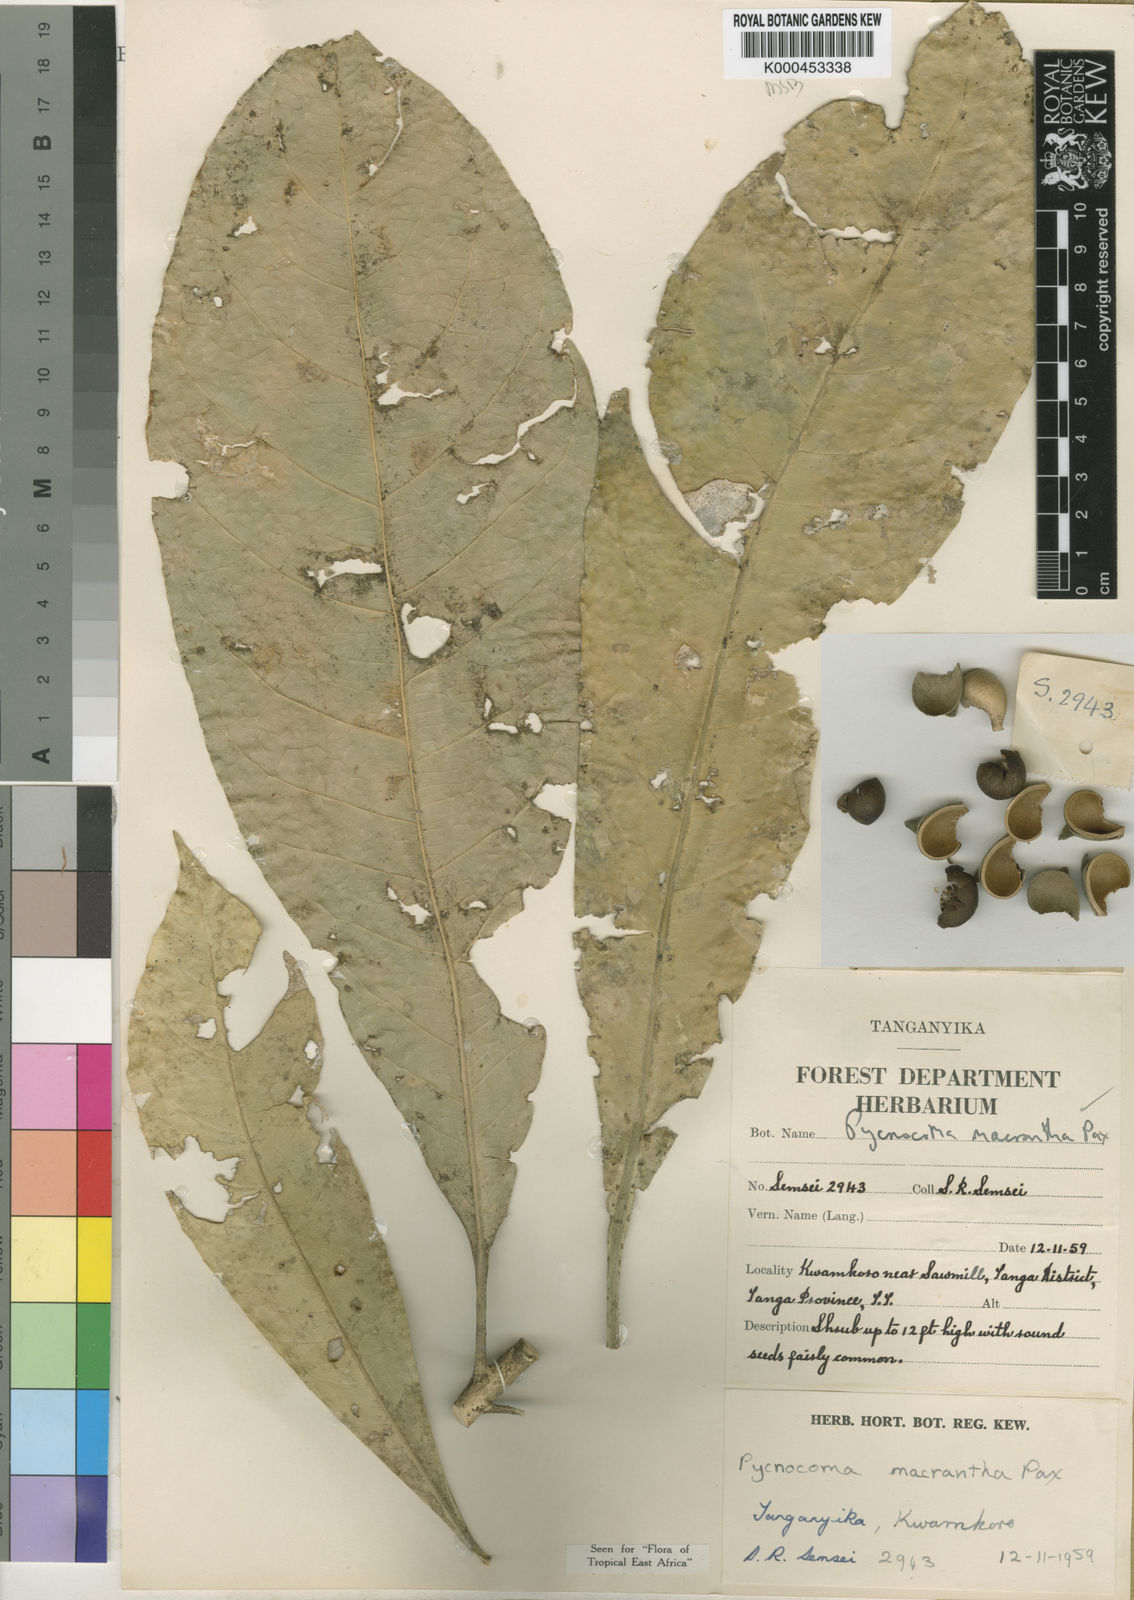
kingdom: Plantae
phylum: Tracheophyta
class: Magnoliopsida
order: Malpighiales
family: Euphorbiaceae
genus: Pycnocoma
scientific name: Pycnocoma macrantha
